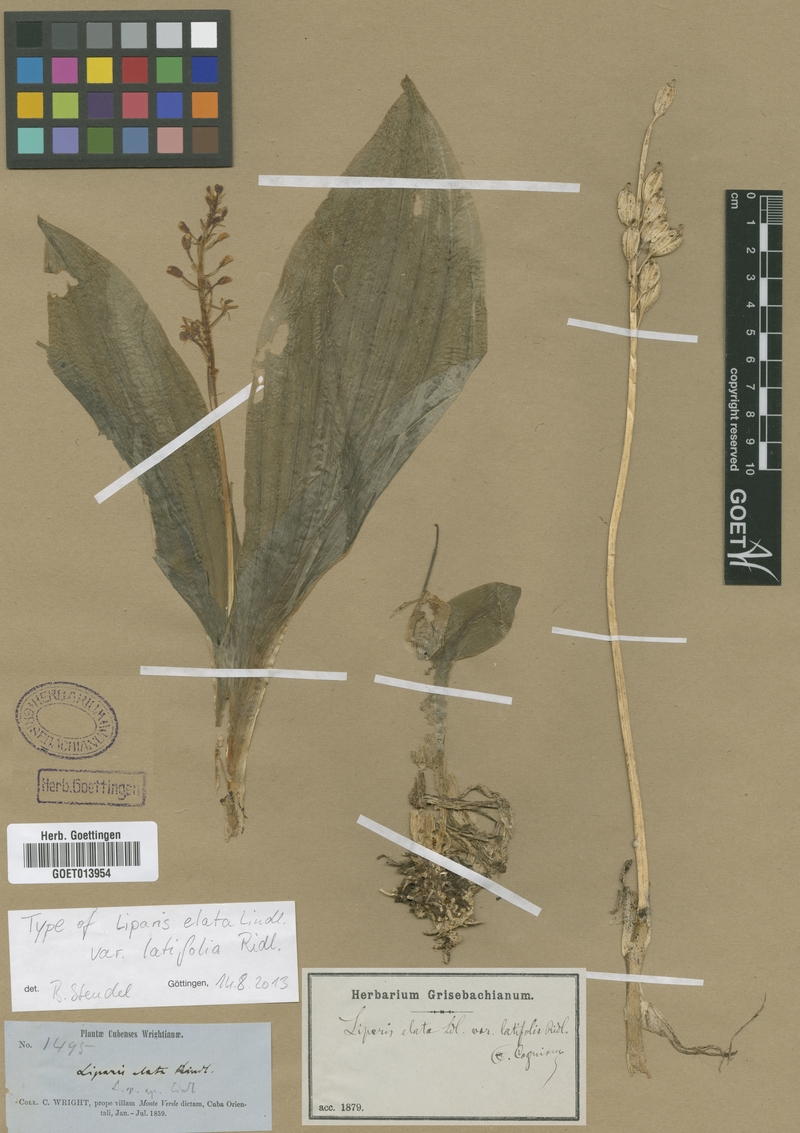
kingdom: Plantae
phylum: Tracheophyta
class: Liliopsida
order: Asparagales
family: Orchidaceae
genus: Liparis
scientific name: Liparis nervosa
